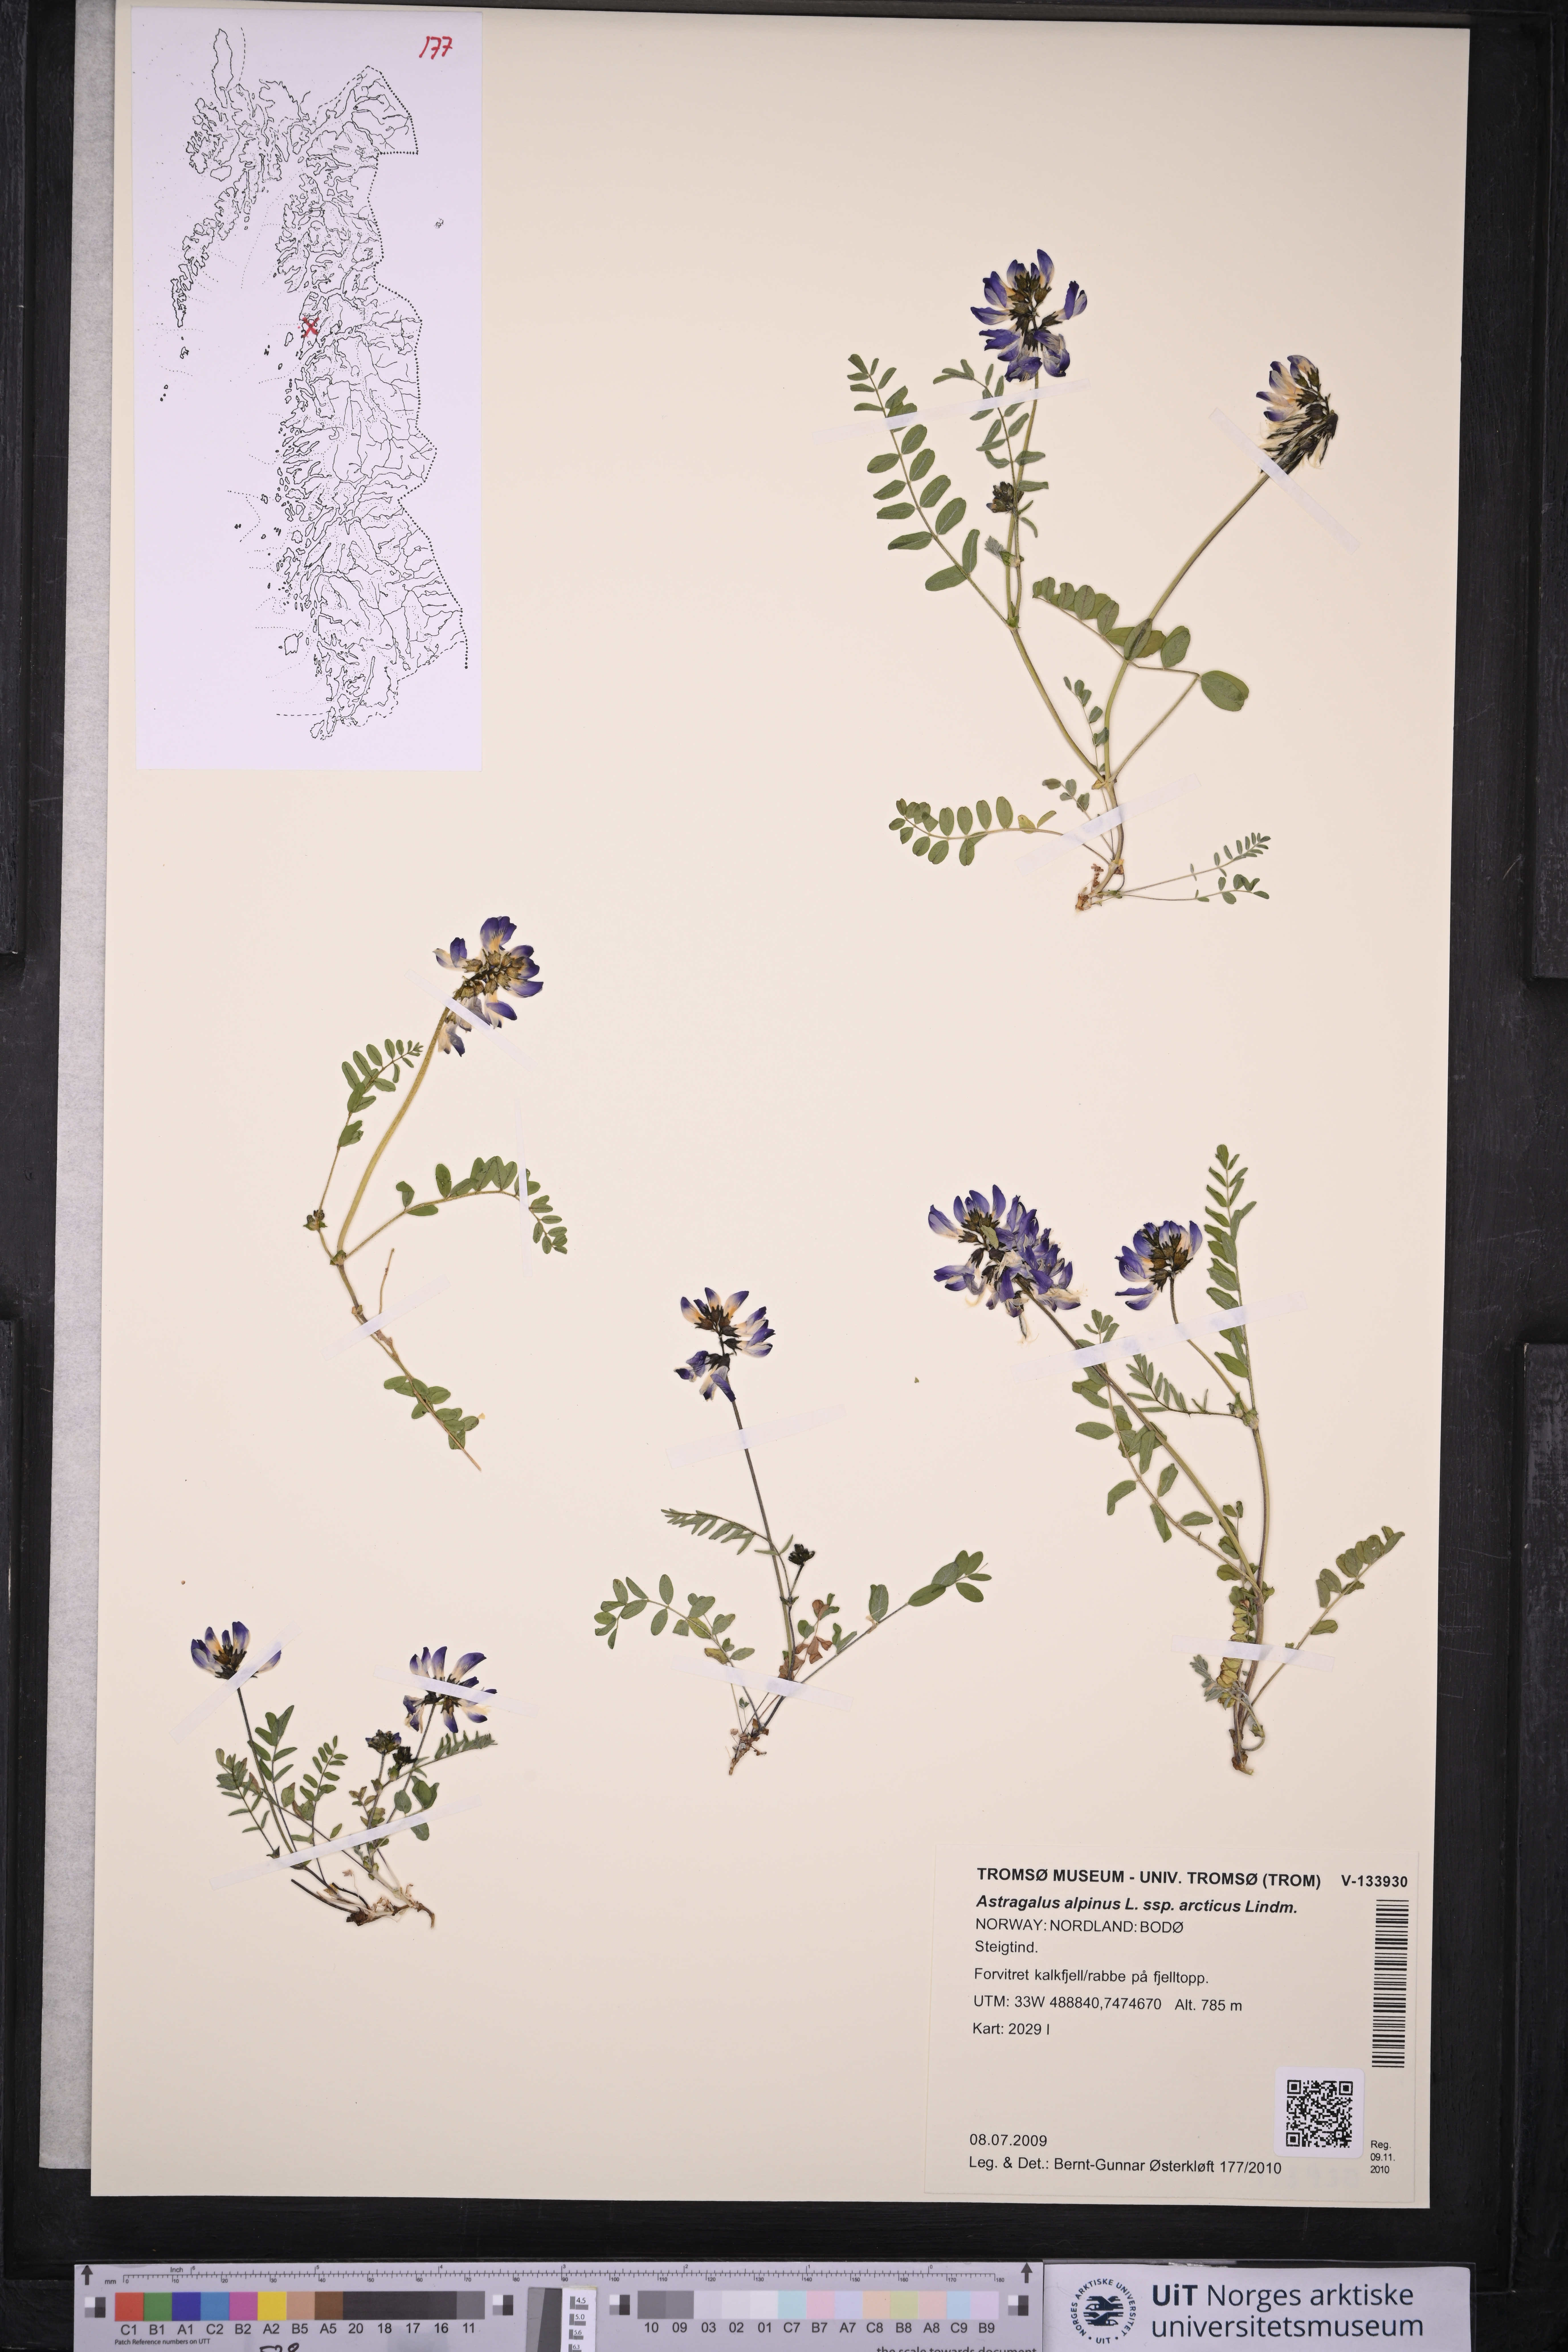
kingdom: Plantae
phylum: Tracheophyta
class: Magnoliopsida
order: Fabales
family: Fabaceae
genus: Astragalus
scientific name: Astragalus norvegicus
